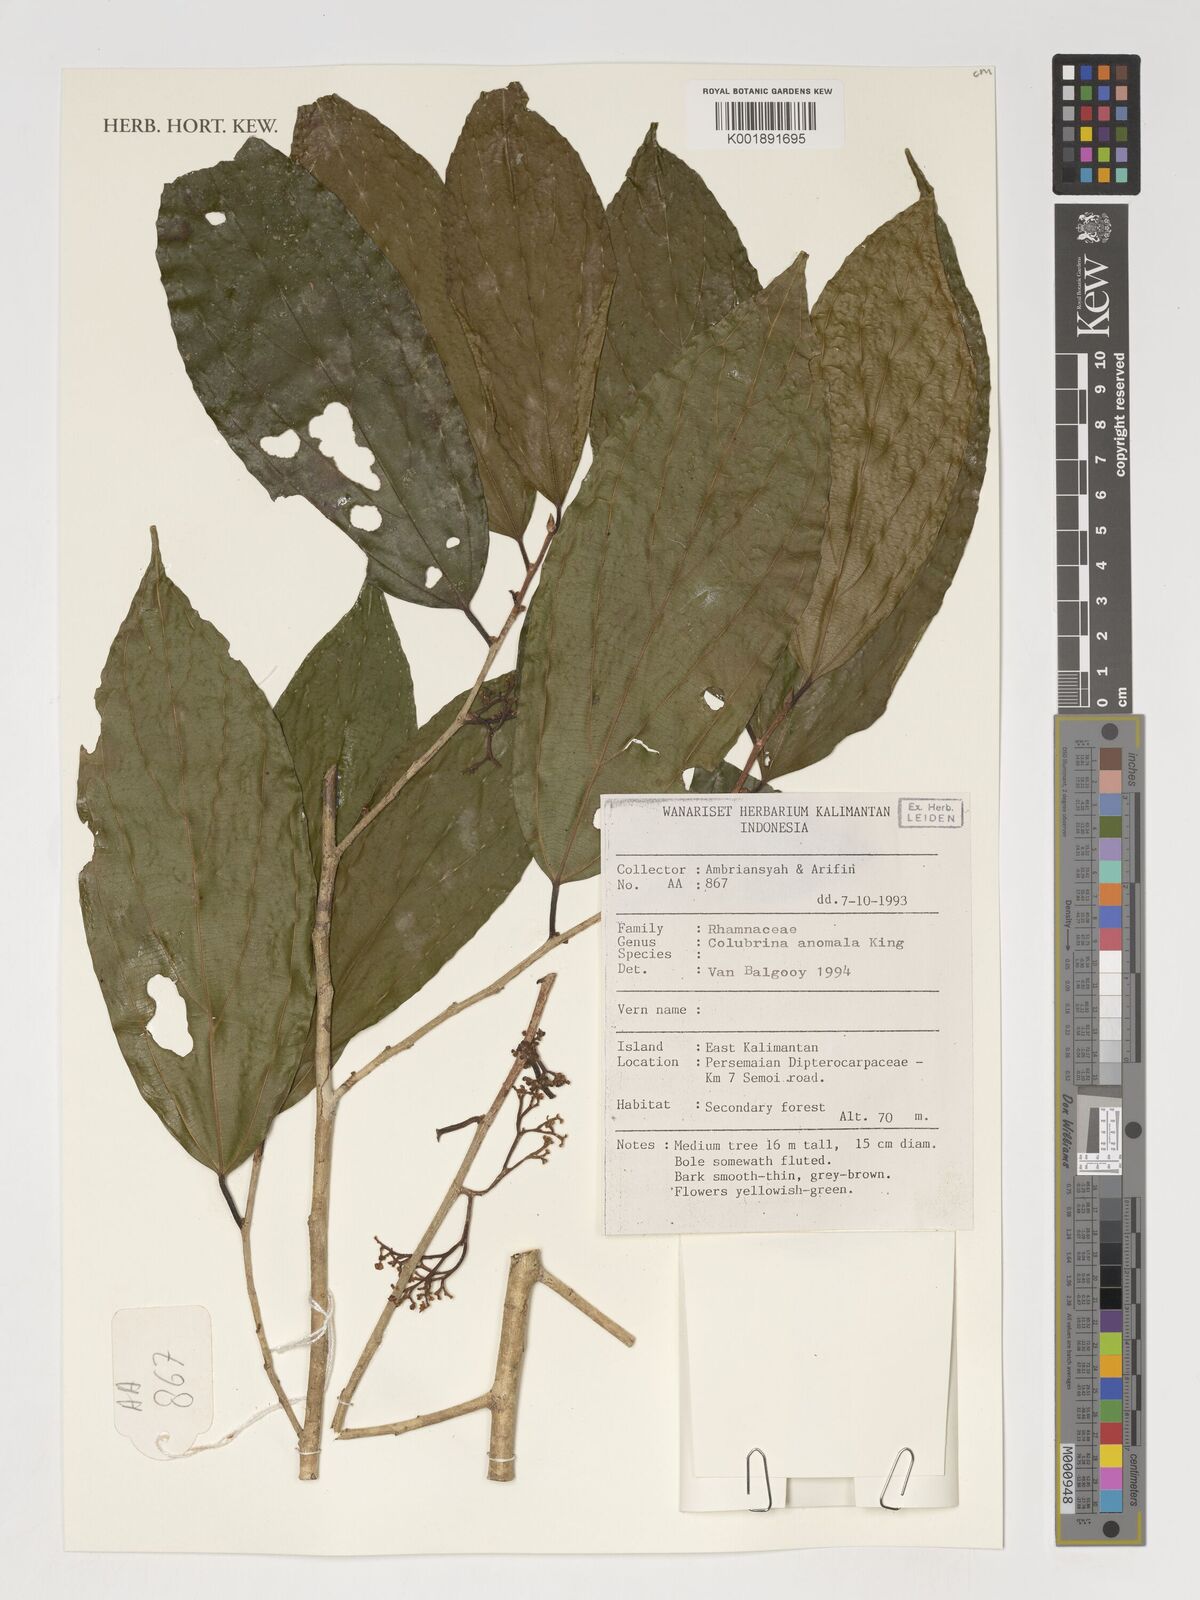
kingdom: Plantae
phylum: Tracheophyta
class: Magnoliopsida
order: Rosales
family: Rhamnaceae
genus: Colubrina
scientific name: Colubrina beccariana
